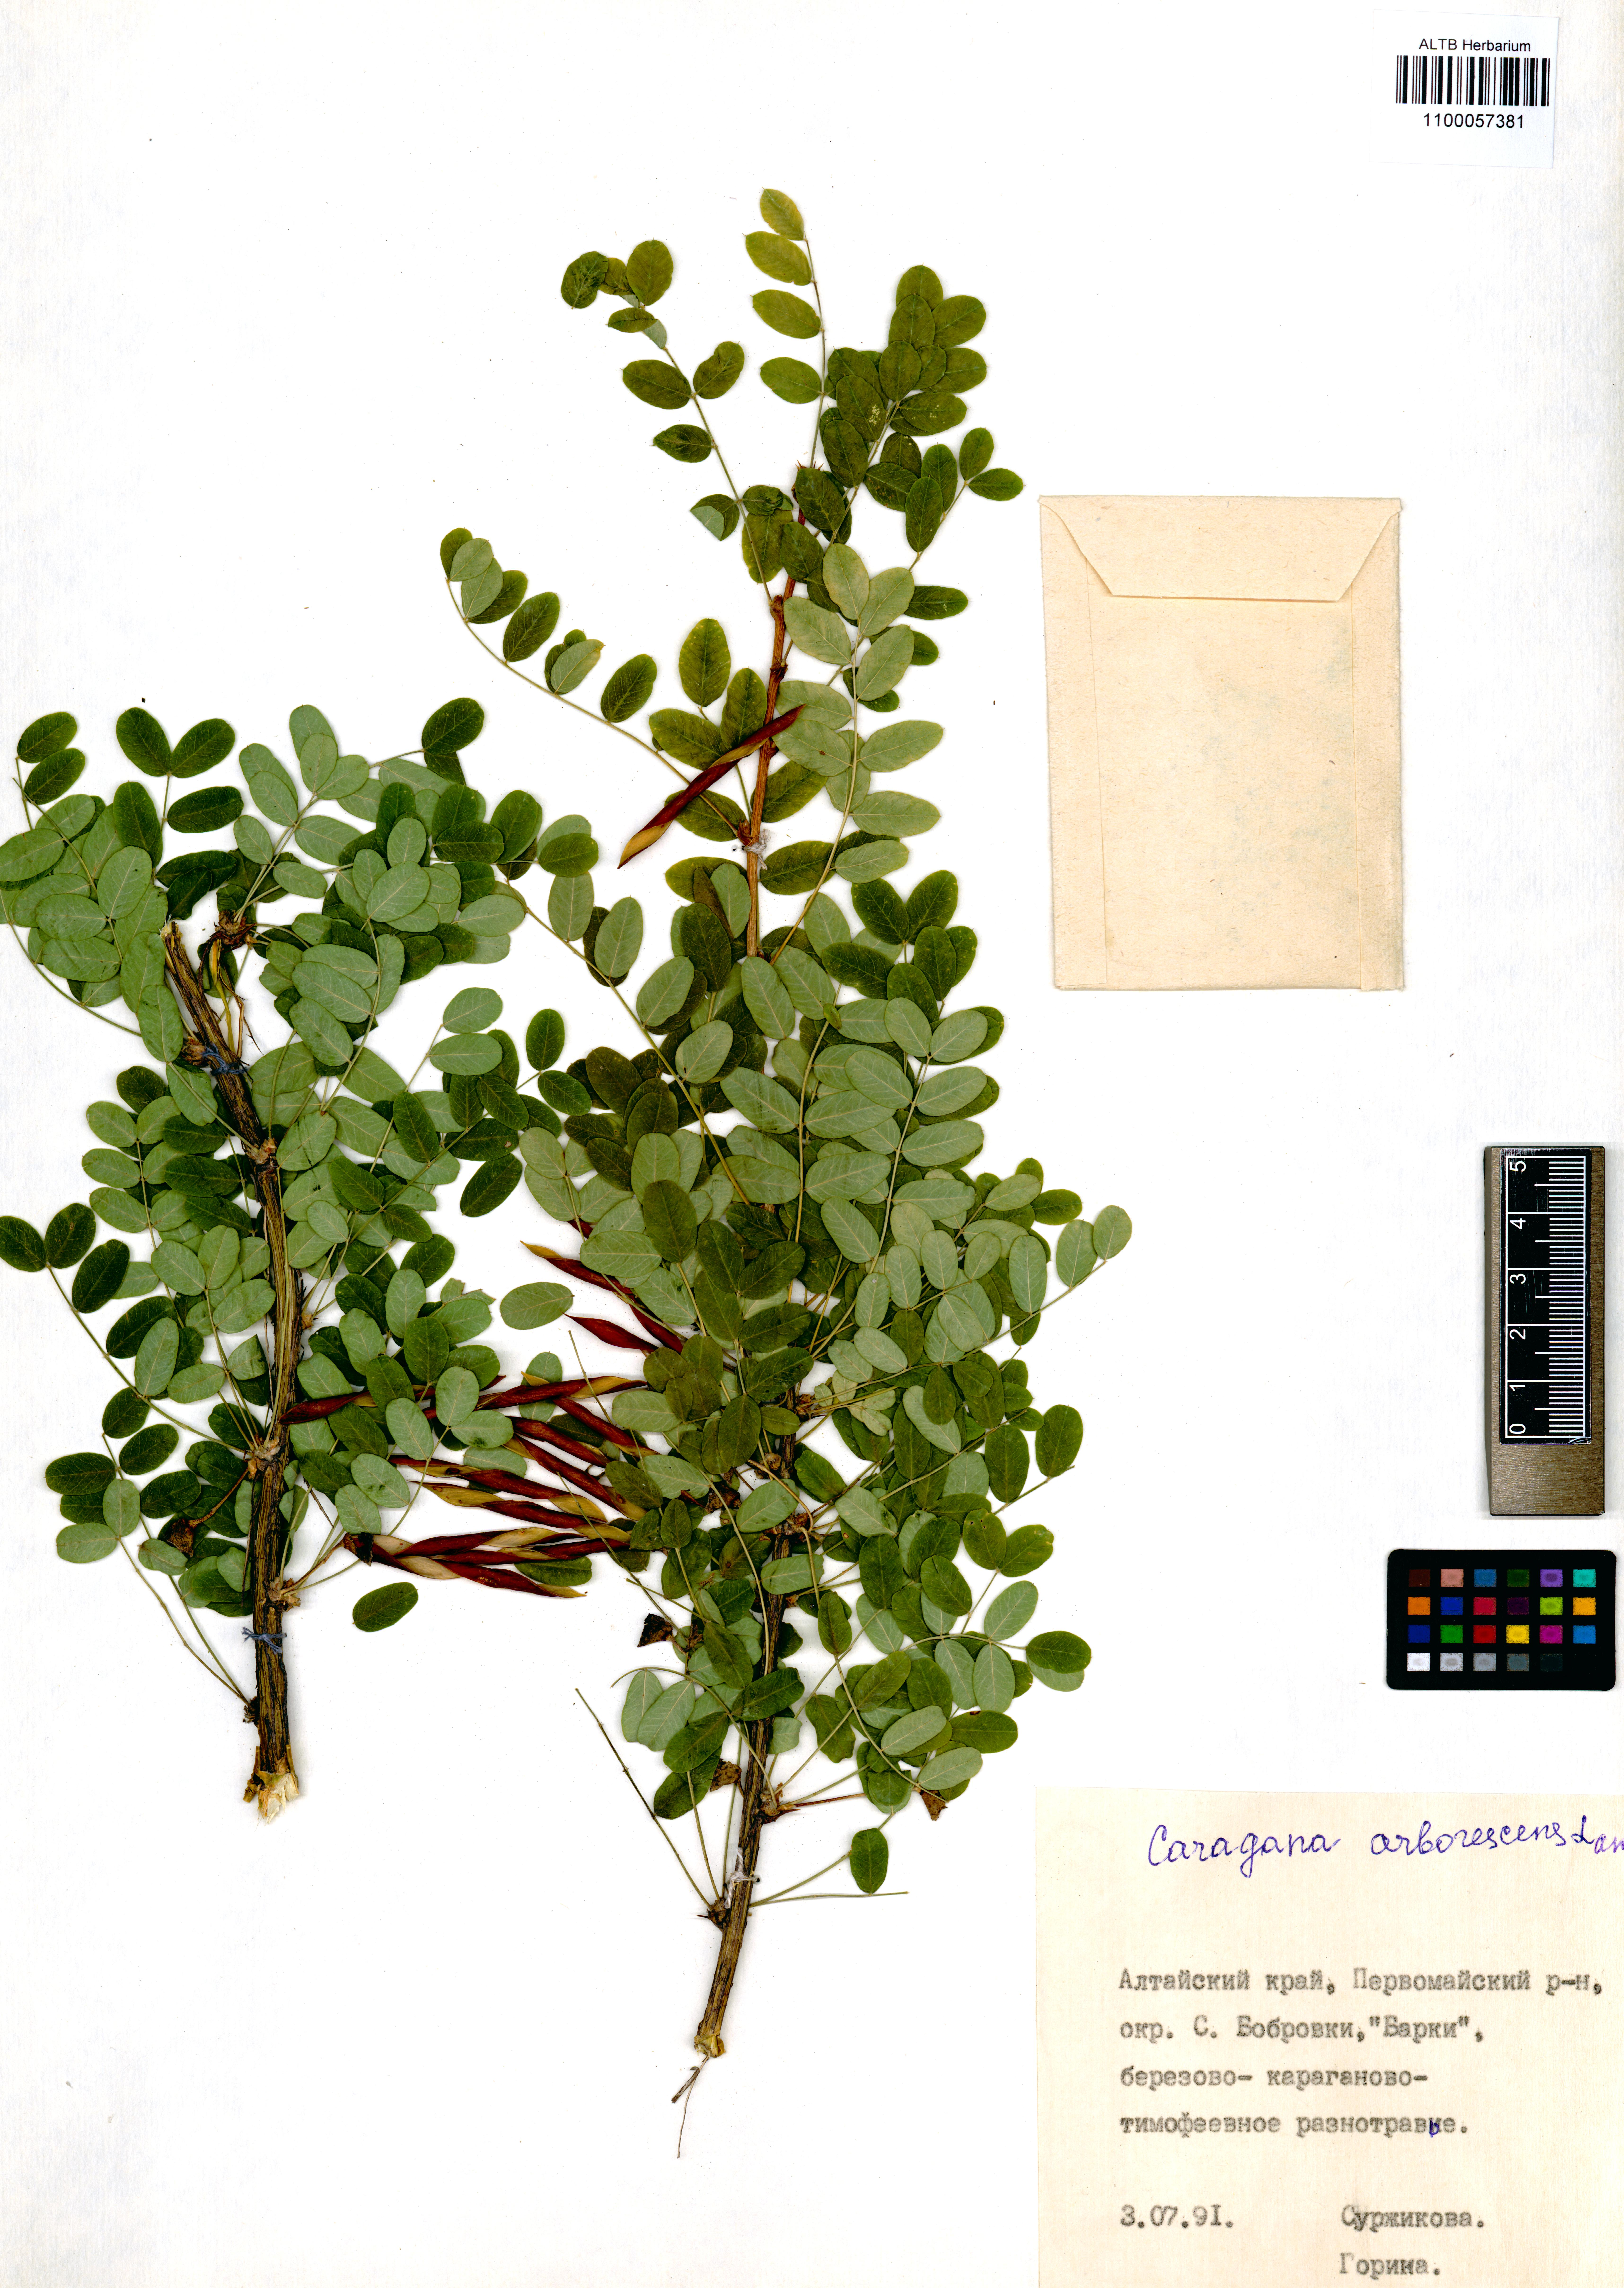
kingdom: Plantae
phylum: Tracheophyta
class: Magnoliopsida
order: Fabales
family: Fabaceae
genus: Caragana
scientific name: Caragana arborescens
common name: Siberian peashrub
